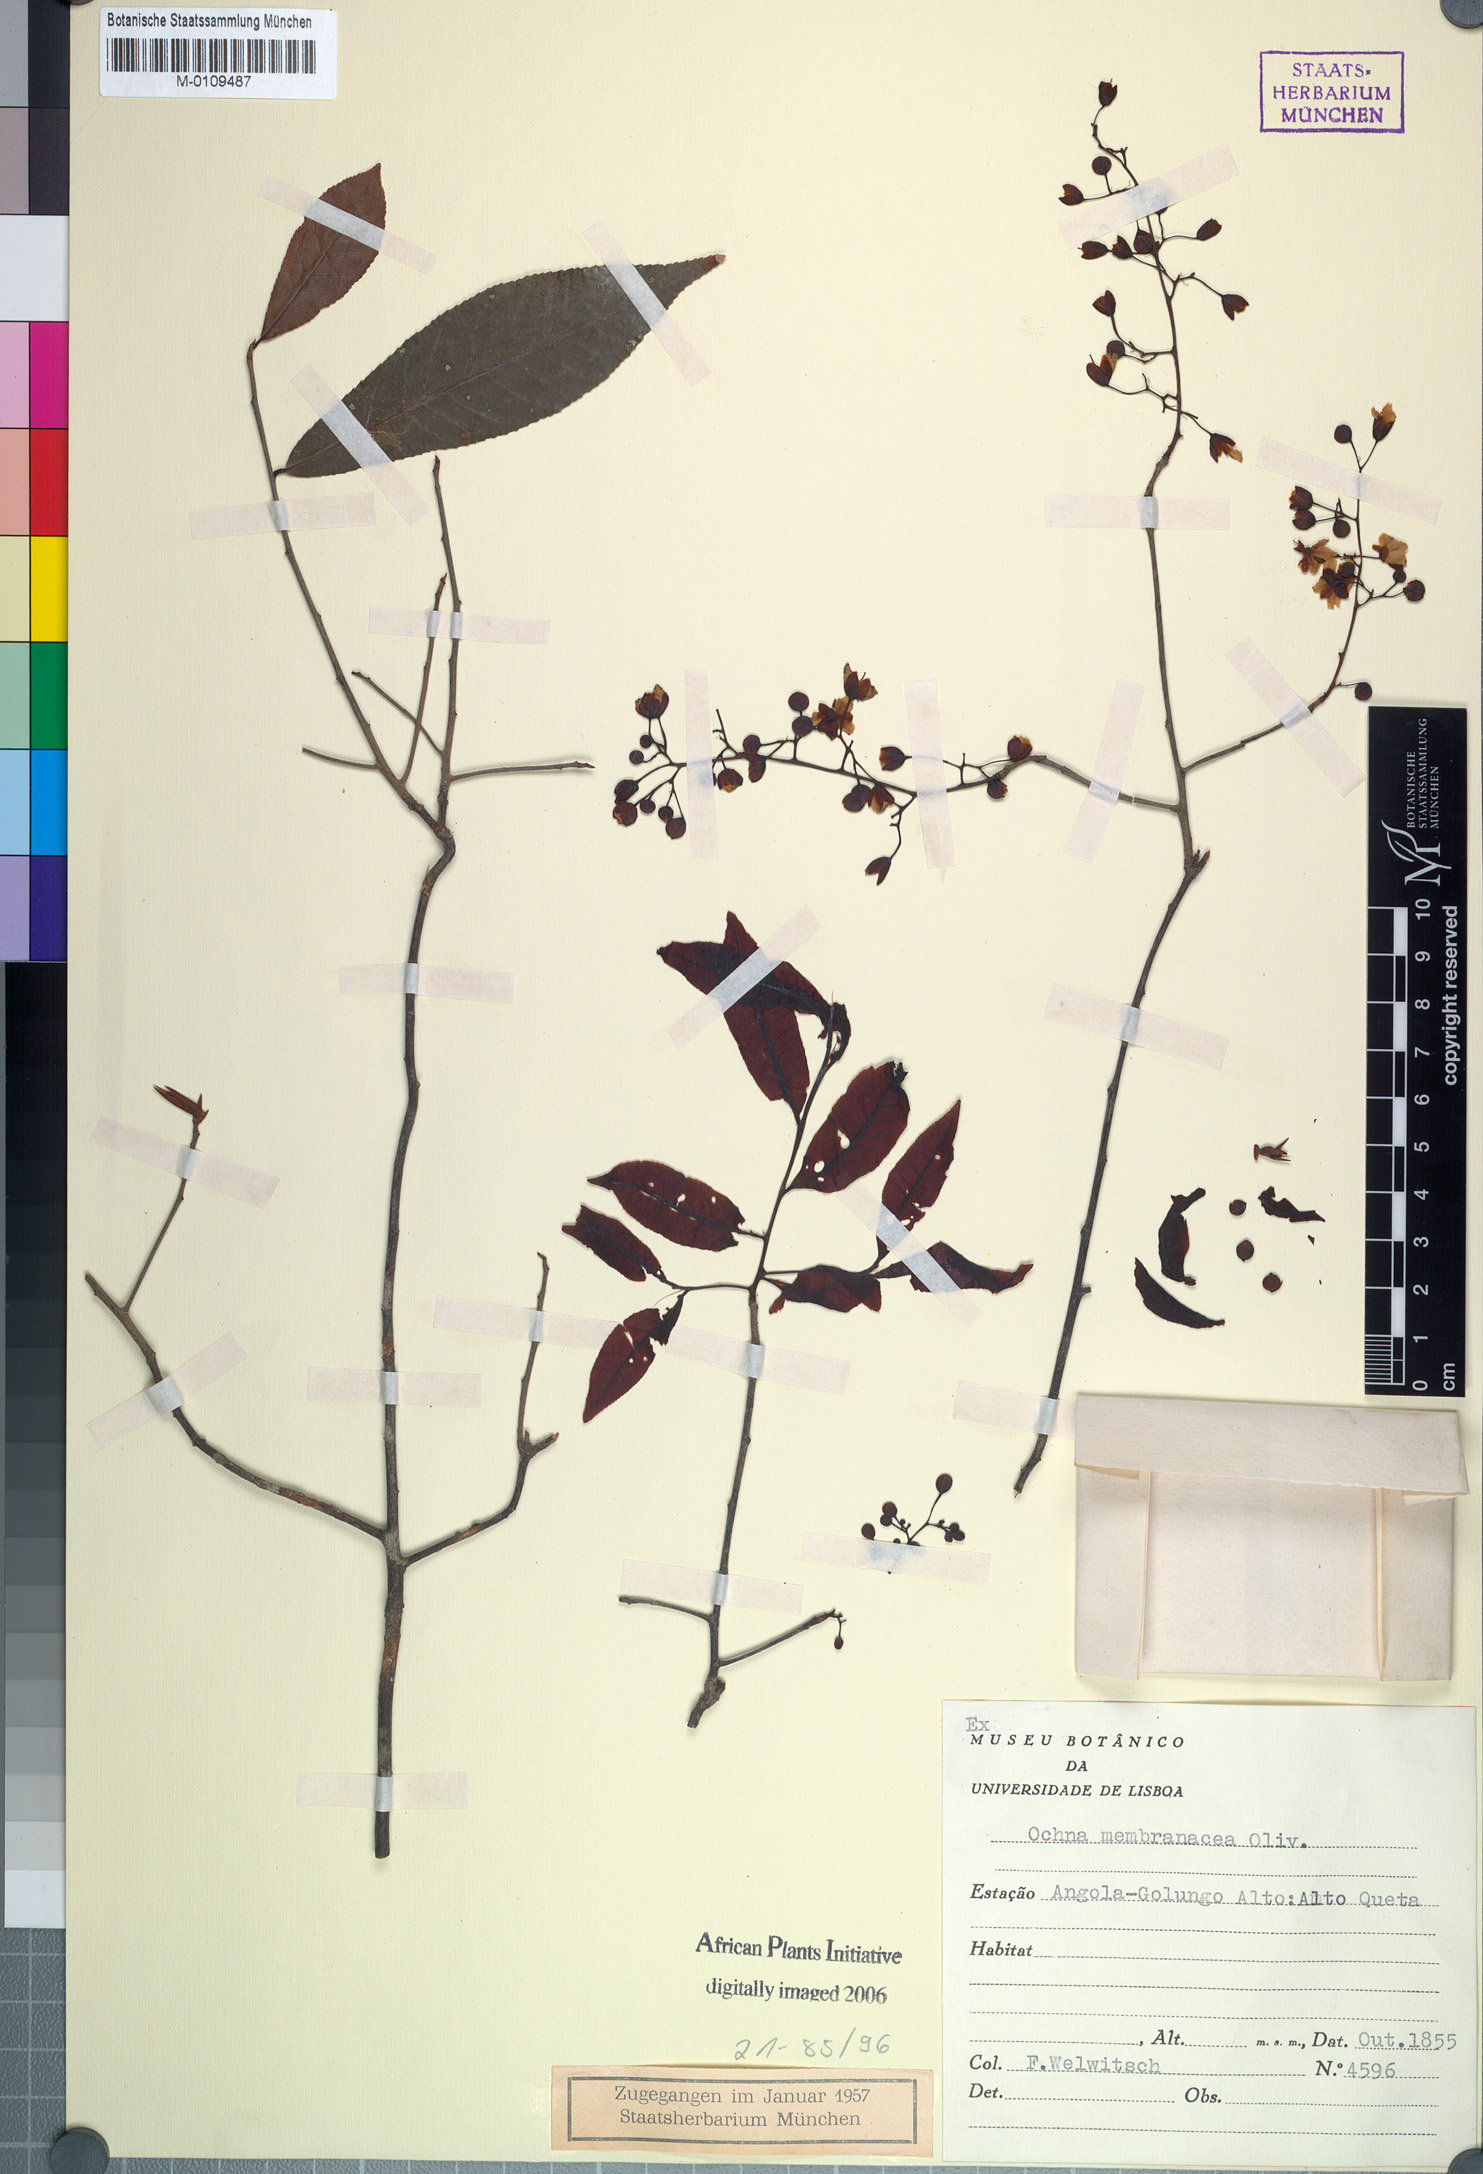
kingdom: Plantae
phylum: Tracheophyta
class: Magnoliopsida
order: Malpighiales
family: Ochnaceae
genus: Ochna
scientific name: Ochna hiernii
